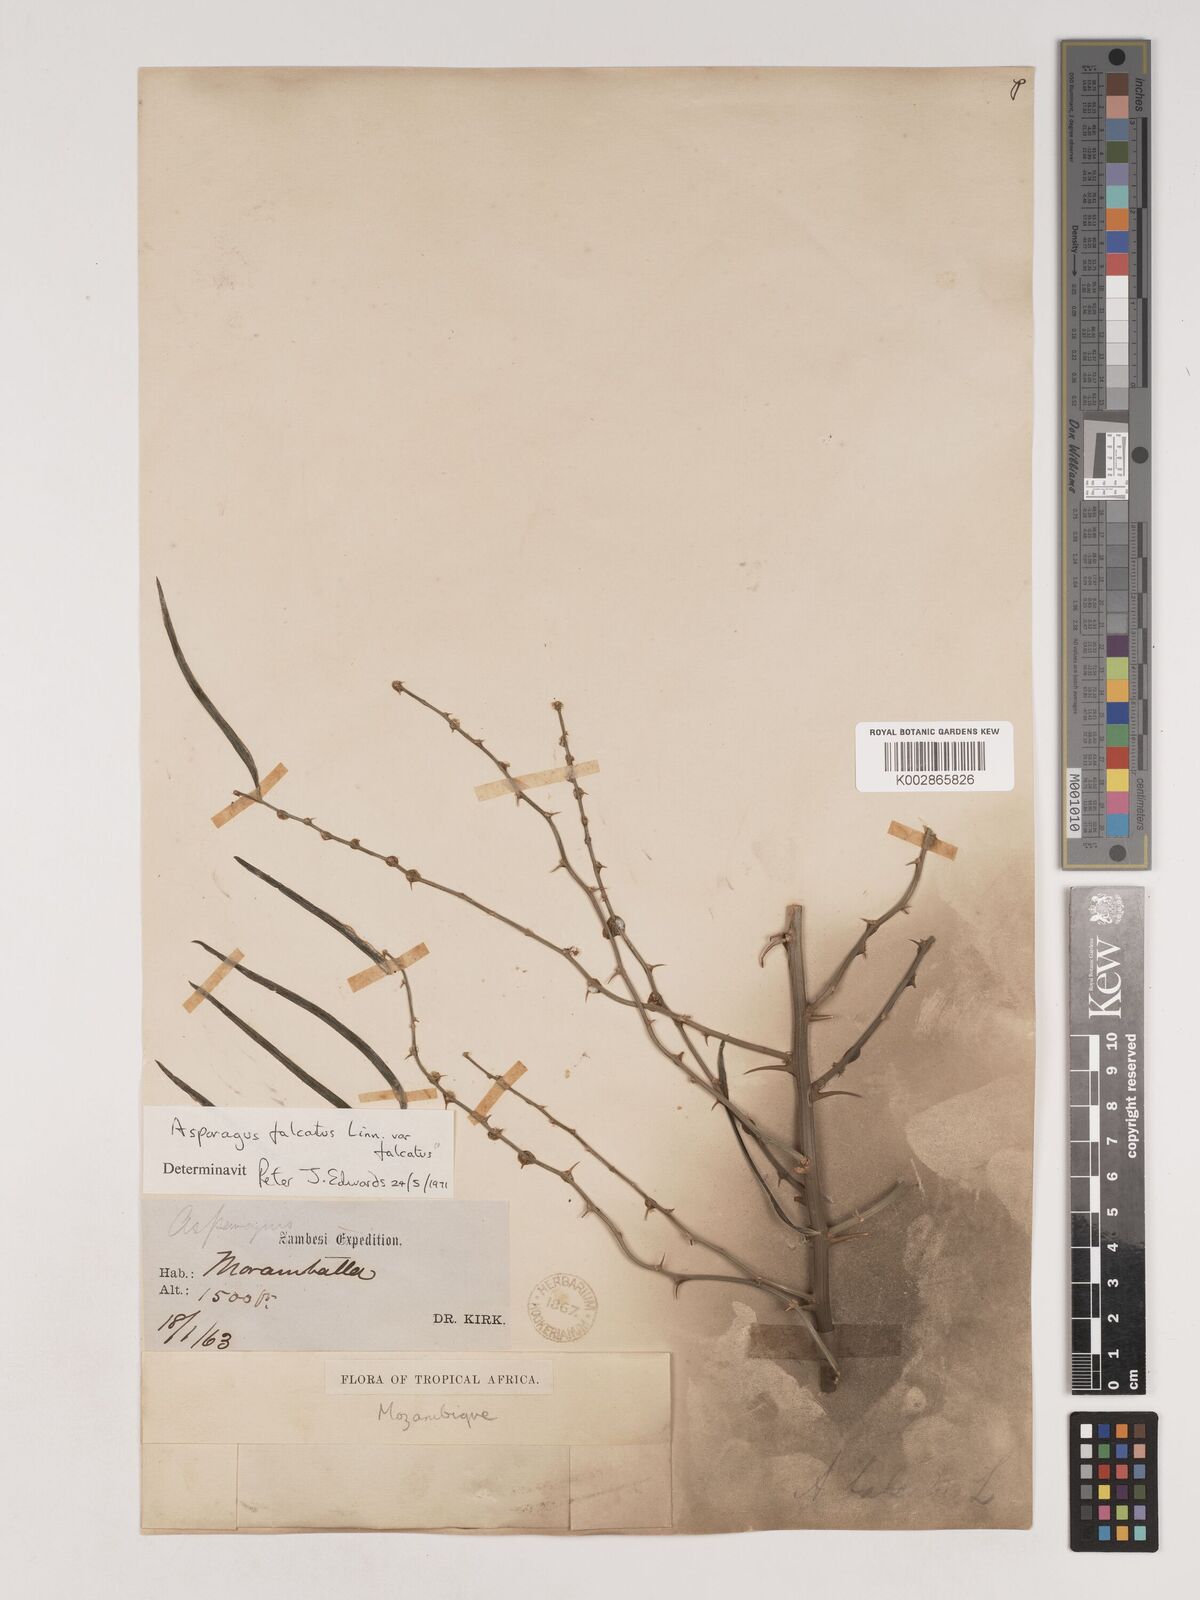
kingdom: Plantae
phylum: Tracheophyta
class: Liliopsida
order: Asparagales
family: Asparagaceae
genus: Asparagus
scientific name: Asparagus falcatus
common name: Asparagus
